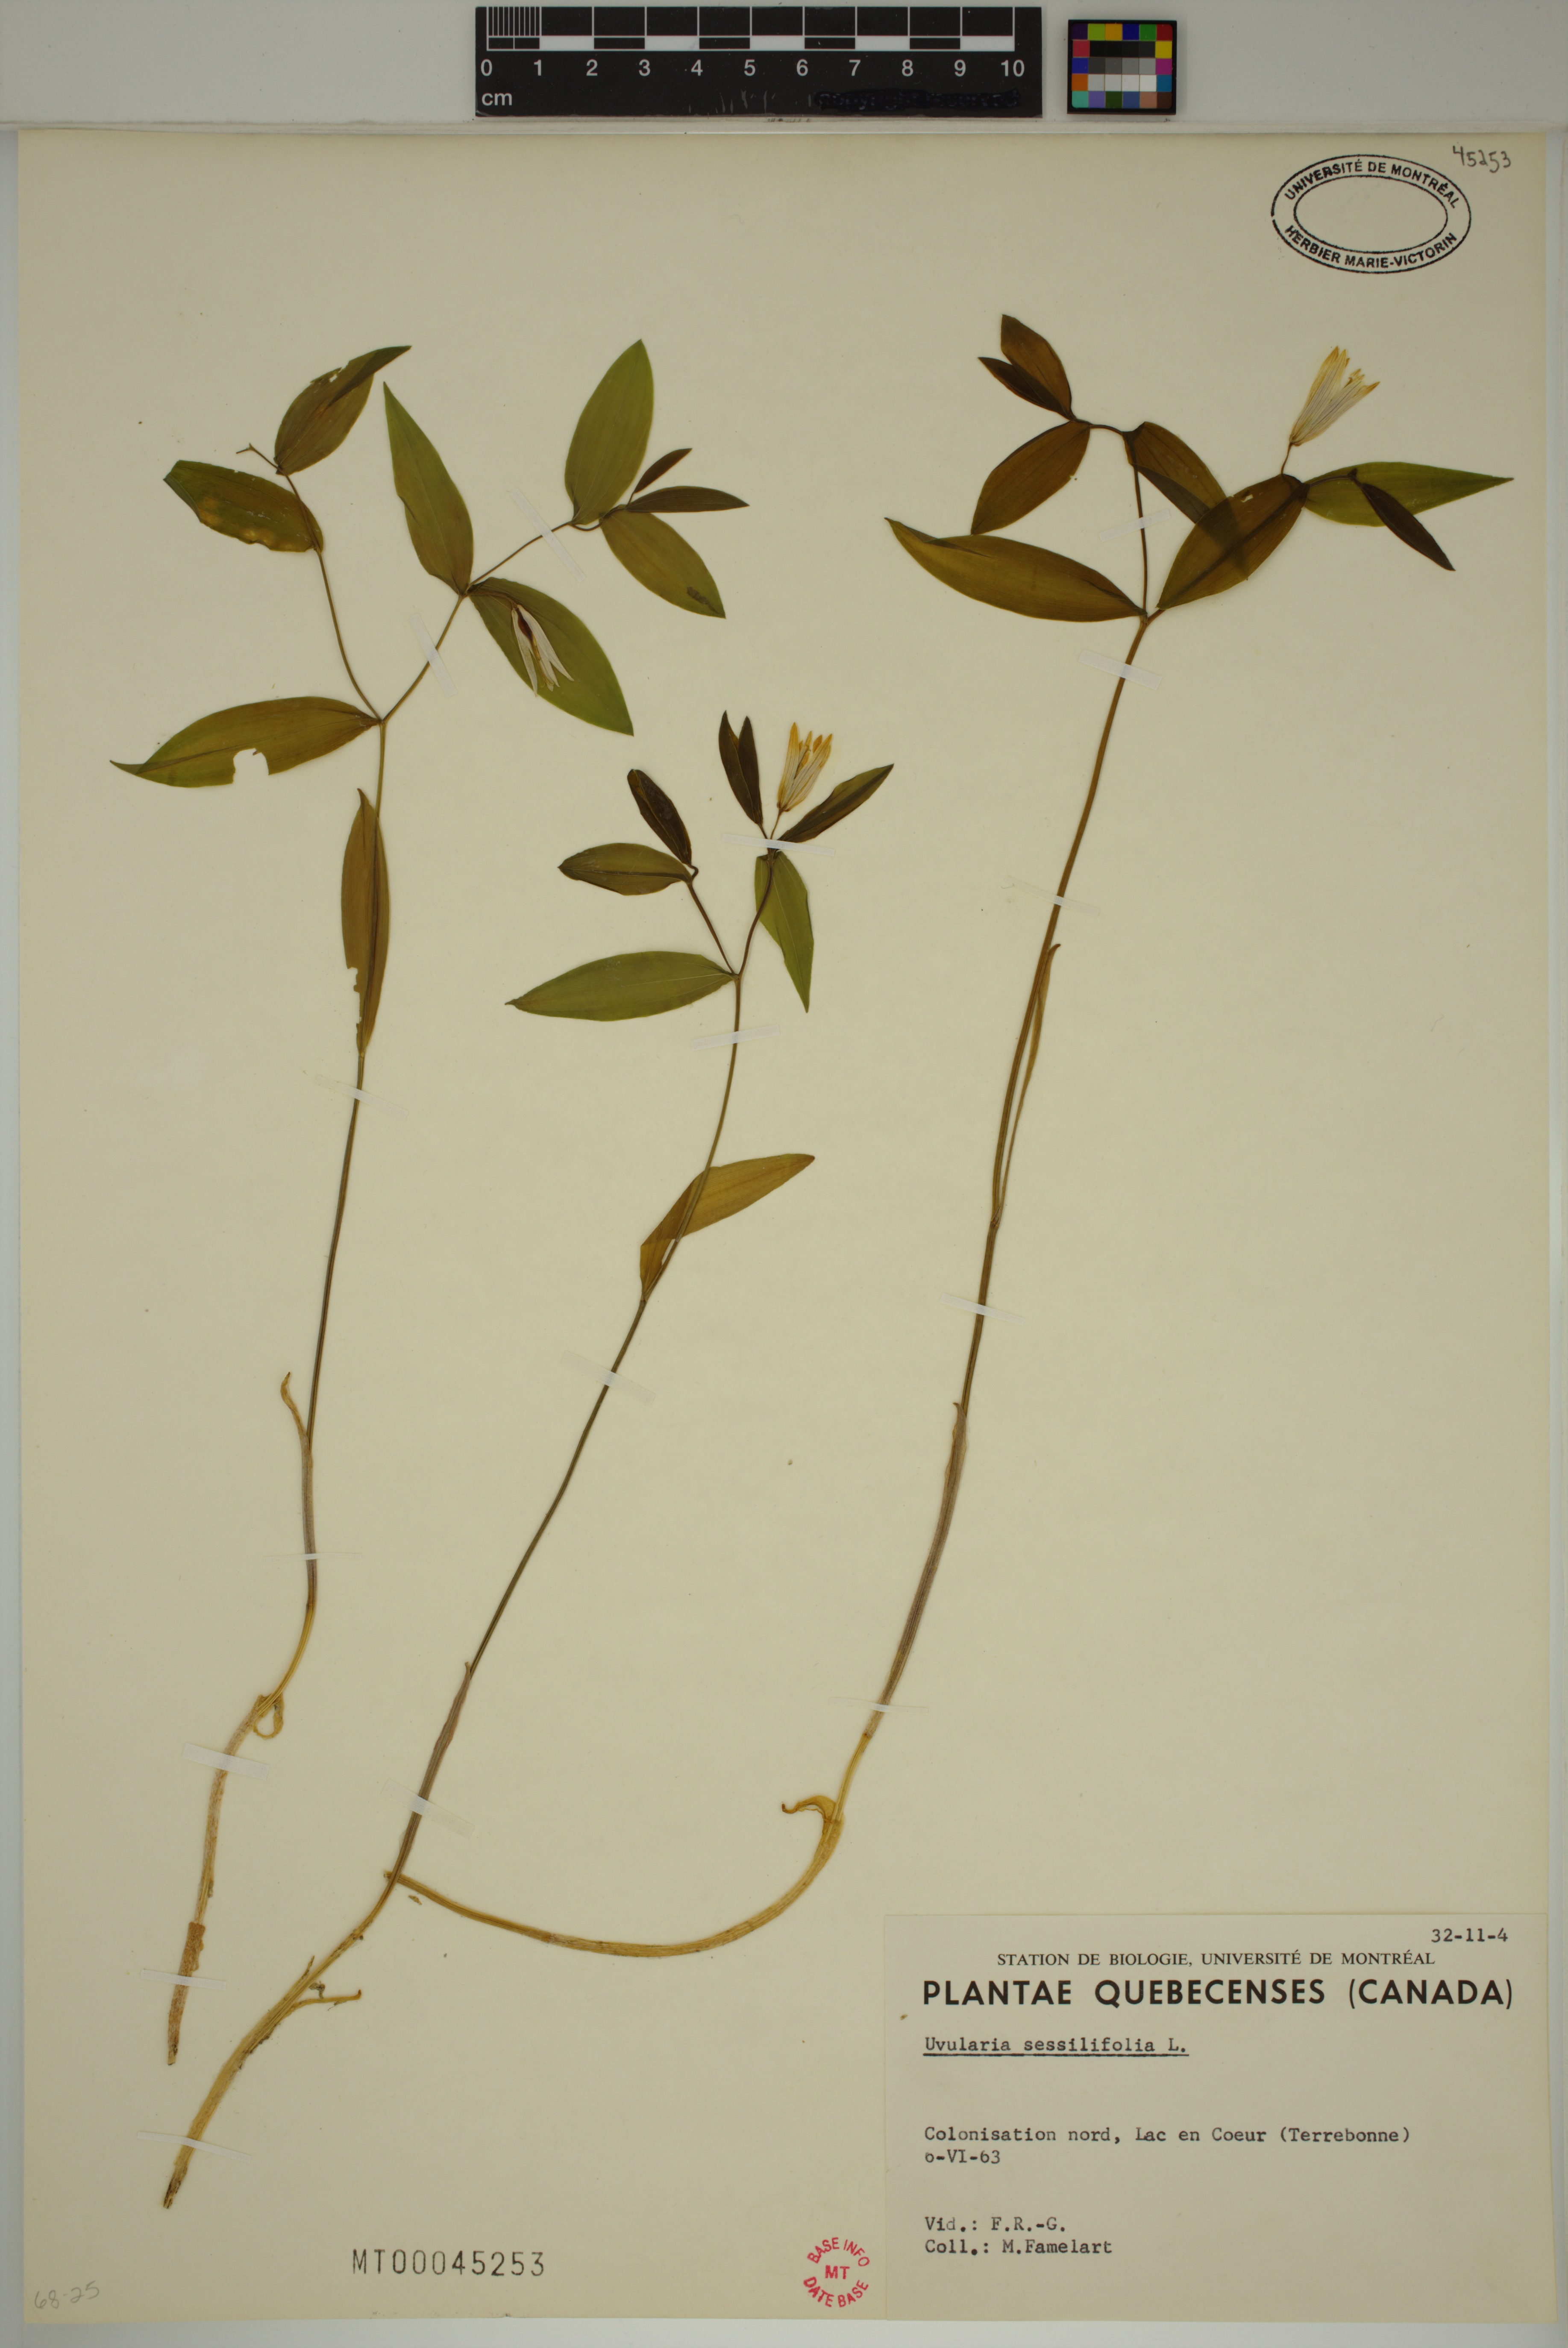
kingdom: Plantae
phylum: Tracheophyta
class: Liliopsida
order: Liliales
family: Colchicaceae
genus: Uvularia
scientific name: Uvularia sessilifolia
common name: Straw-lily
